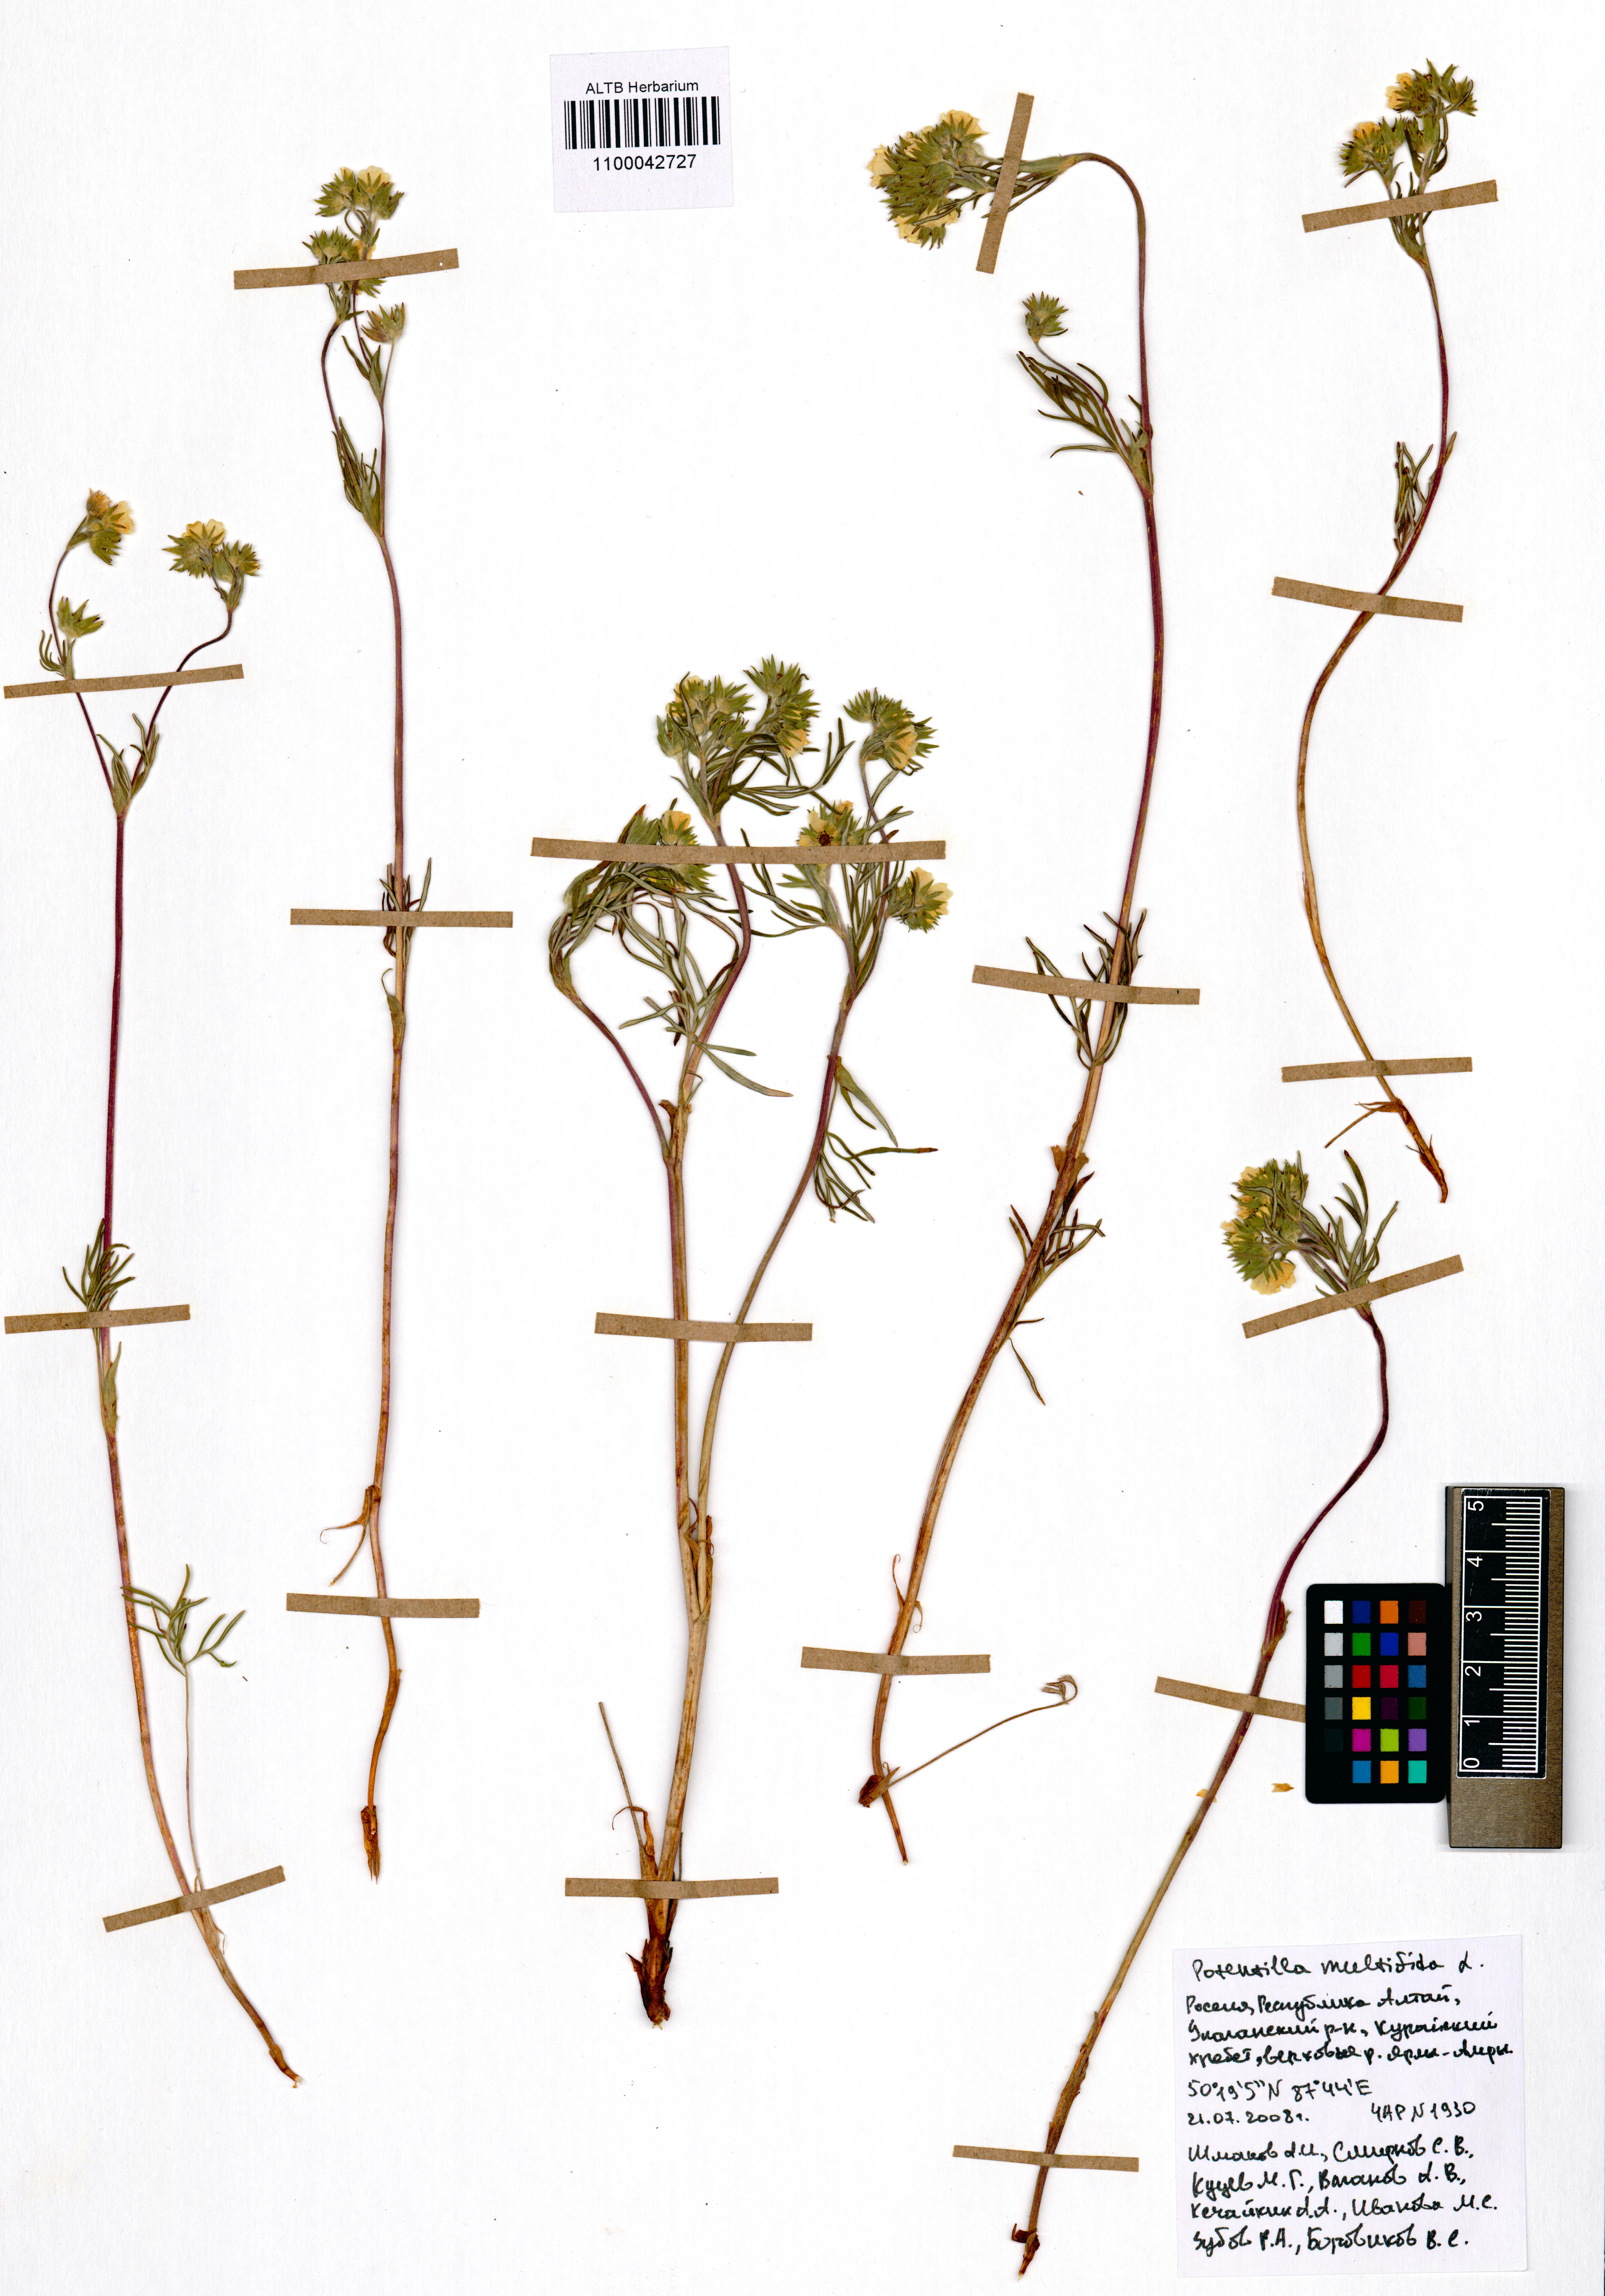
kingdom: Plantae
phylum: Tracheophyta
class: Magnoliopsida
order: Rosales
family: Rosaceae
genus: Potentilla
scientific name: Potentilla multifida
